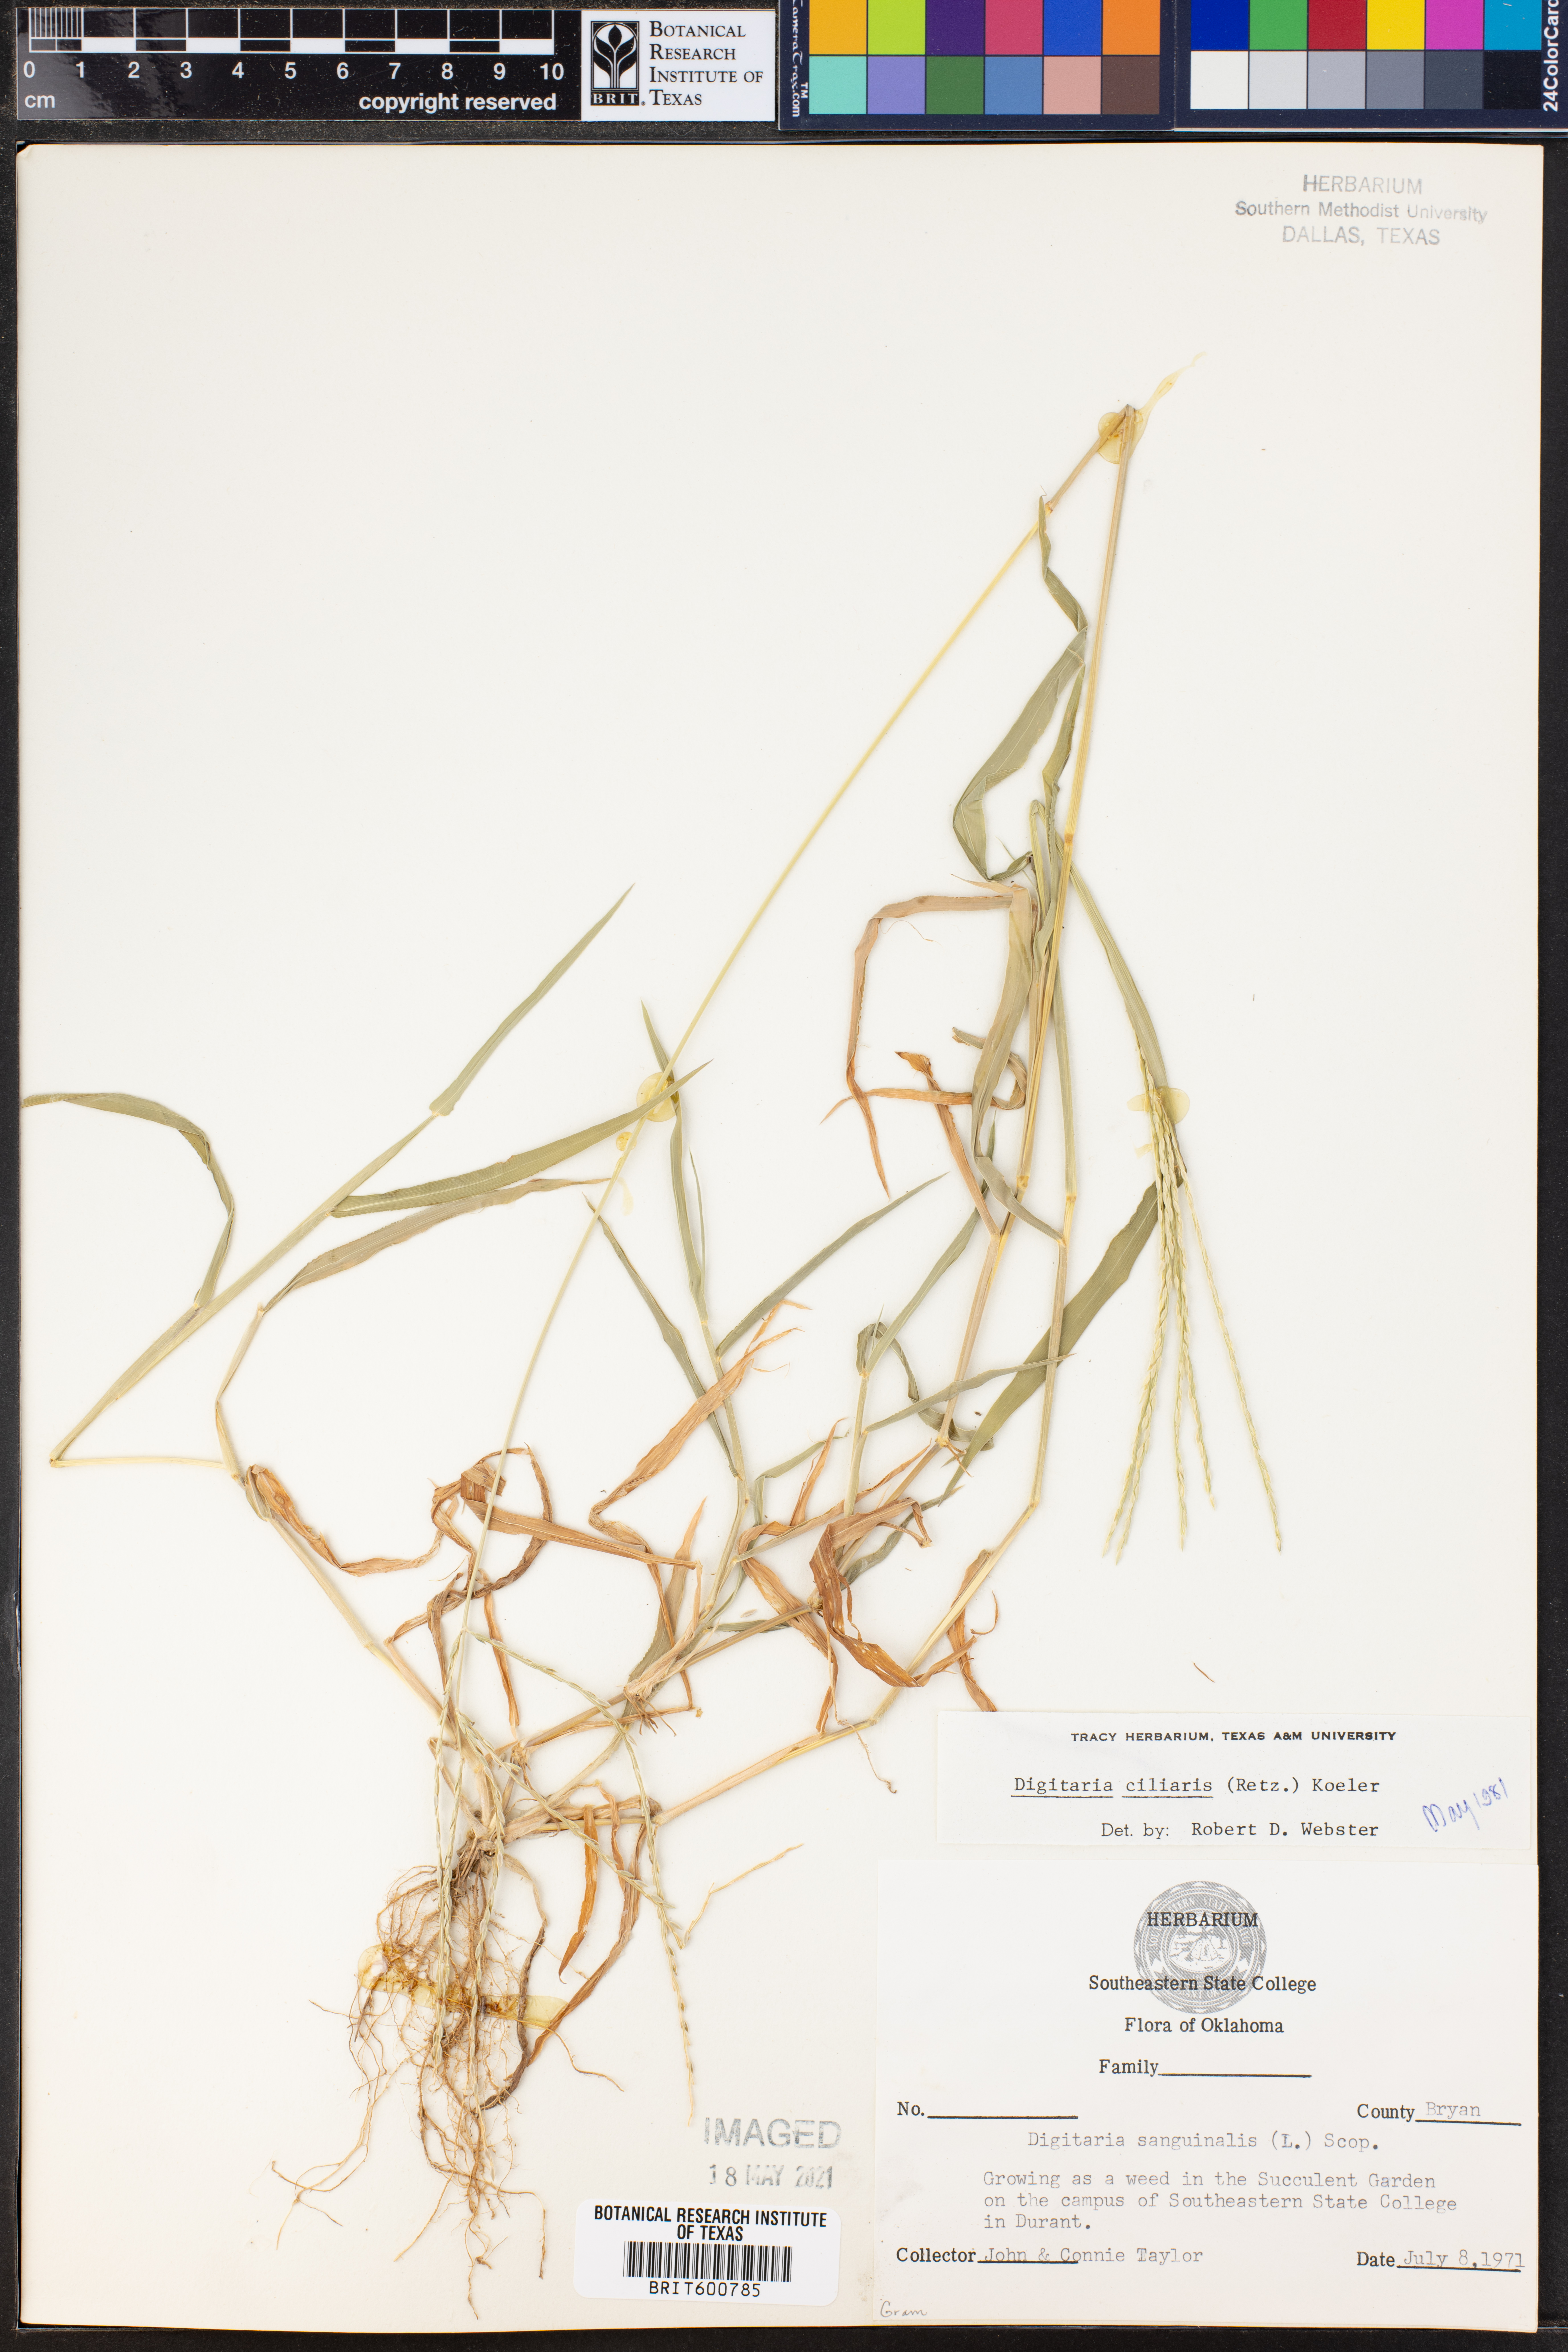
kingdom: Plantae
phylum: Tracheophyta
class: Liliopsida
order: Poales
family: Poaceae
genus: Digitaria
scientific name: Digitaria ciliaris
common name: Tropical finger-grass
